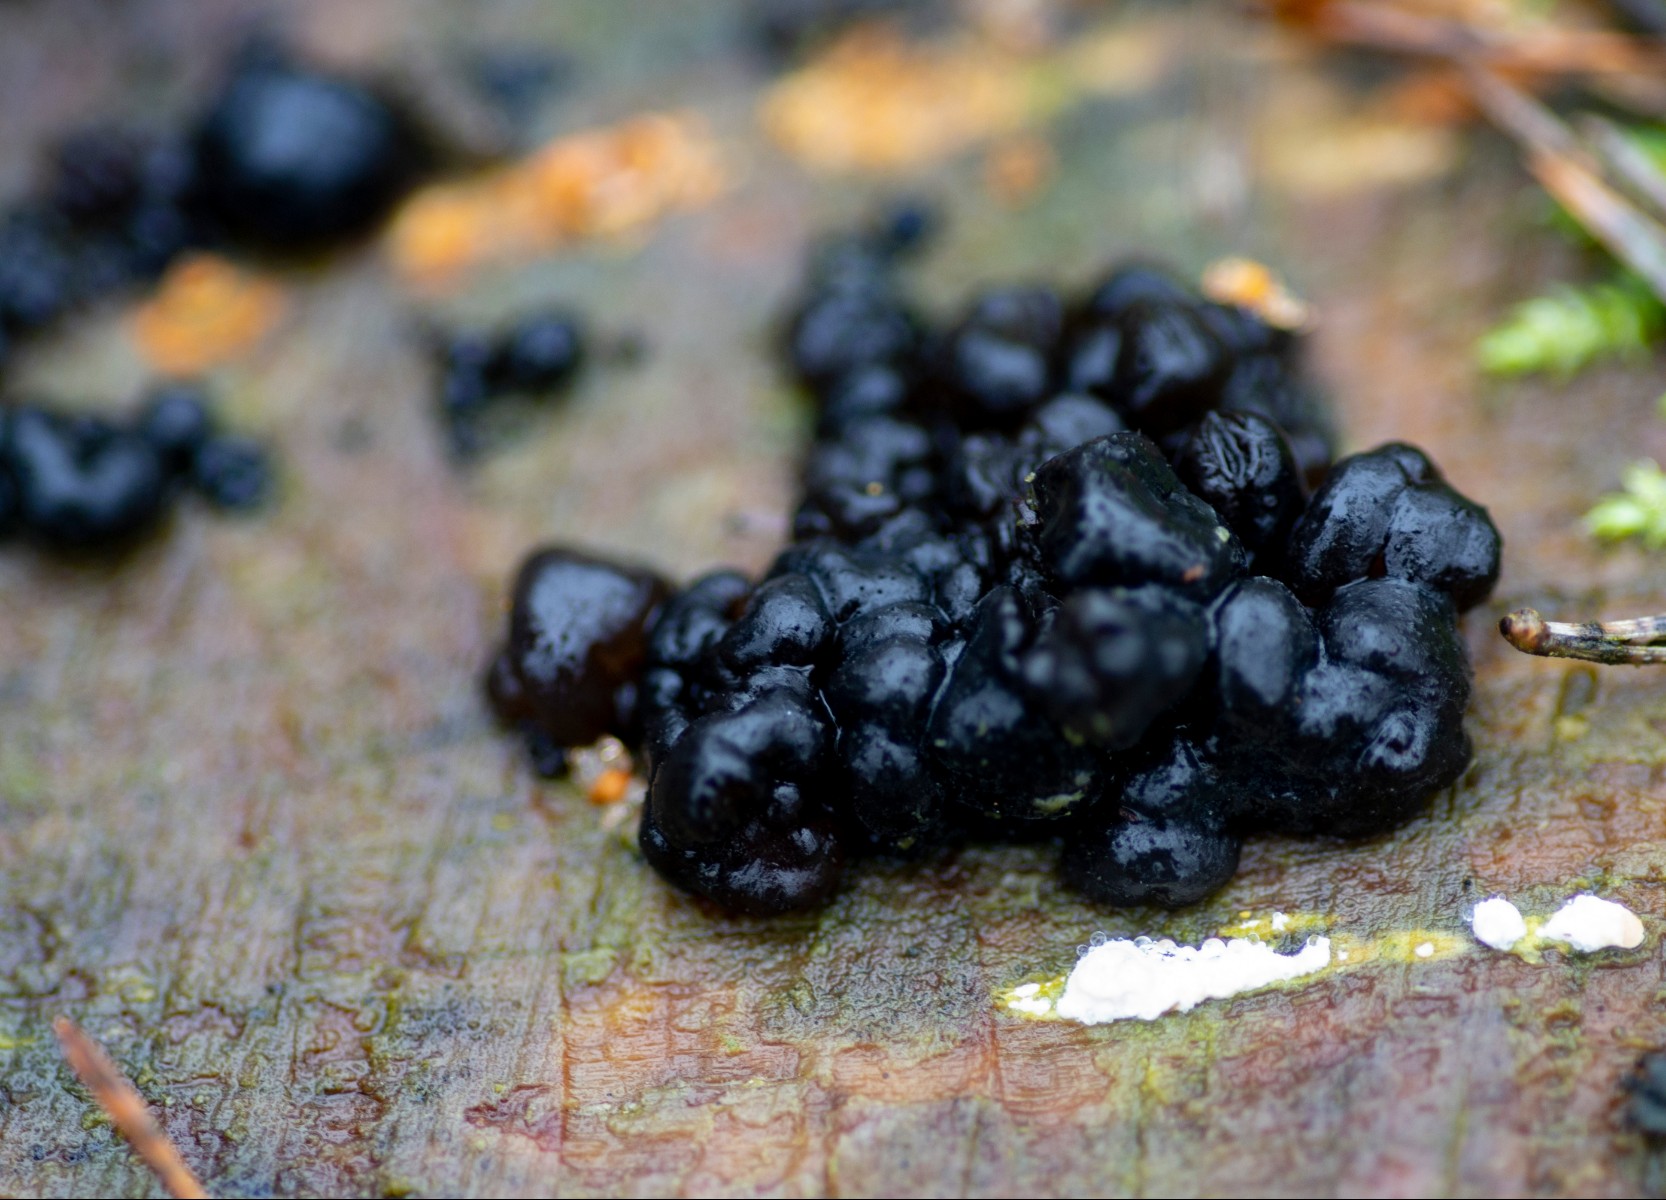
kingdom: Fungi
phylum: Basidiomycota
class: Agaricomycetes
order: Auriculariales
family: Auriculariaceae
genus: Exidia
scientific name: Exidia pithya
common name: gran-bævretop
